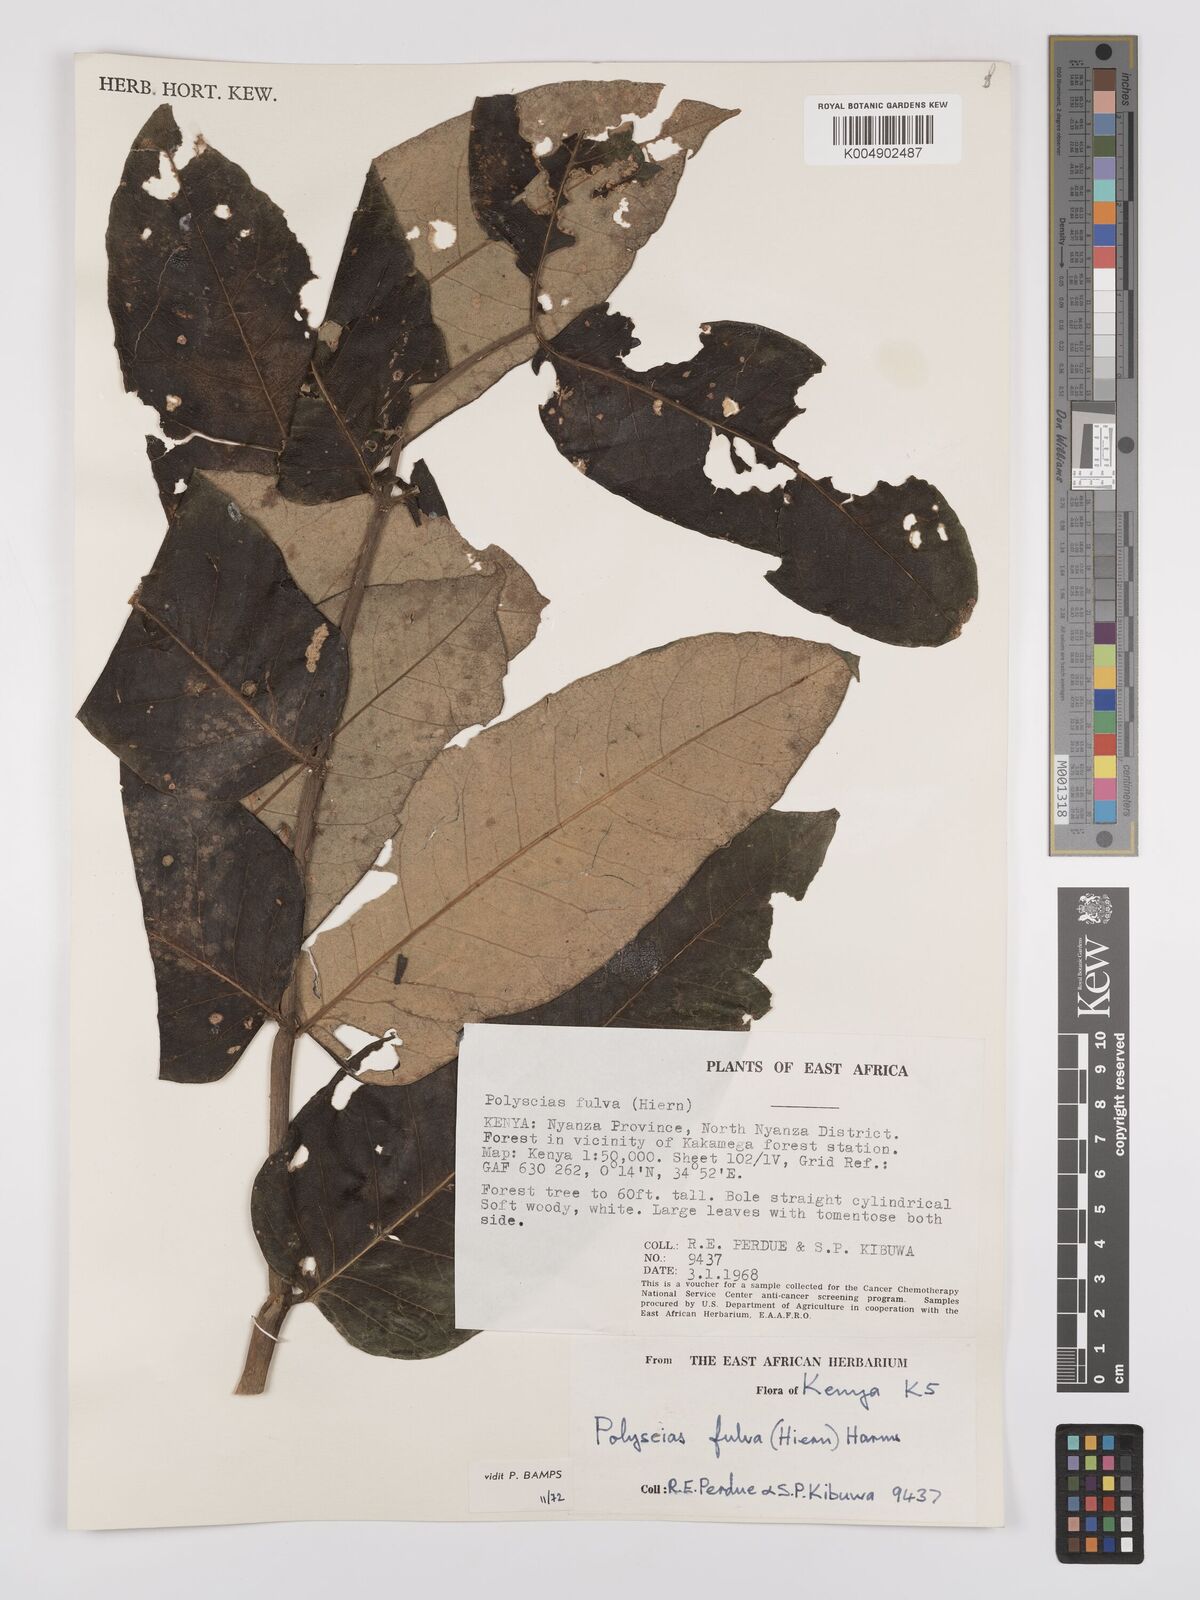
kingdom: Plantae
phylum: Tracheophyta
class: Magnoliopsida
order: Apiales
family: Araliaceae
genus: Polyscias
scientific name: Polyscias fulva
